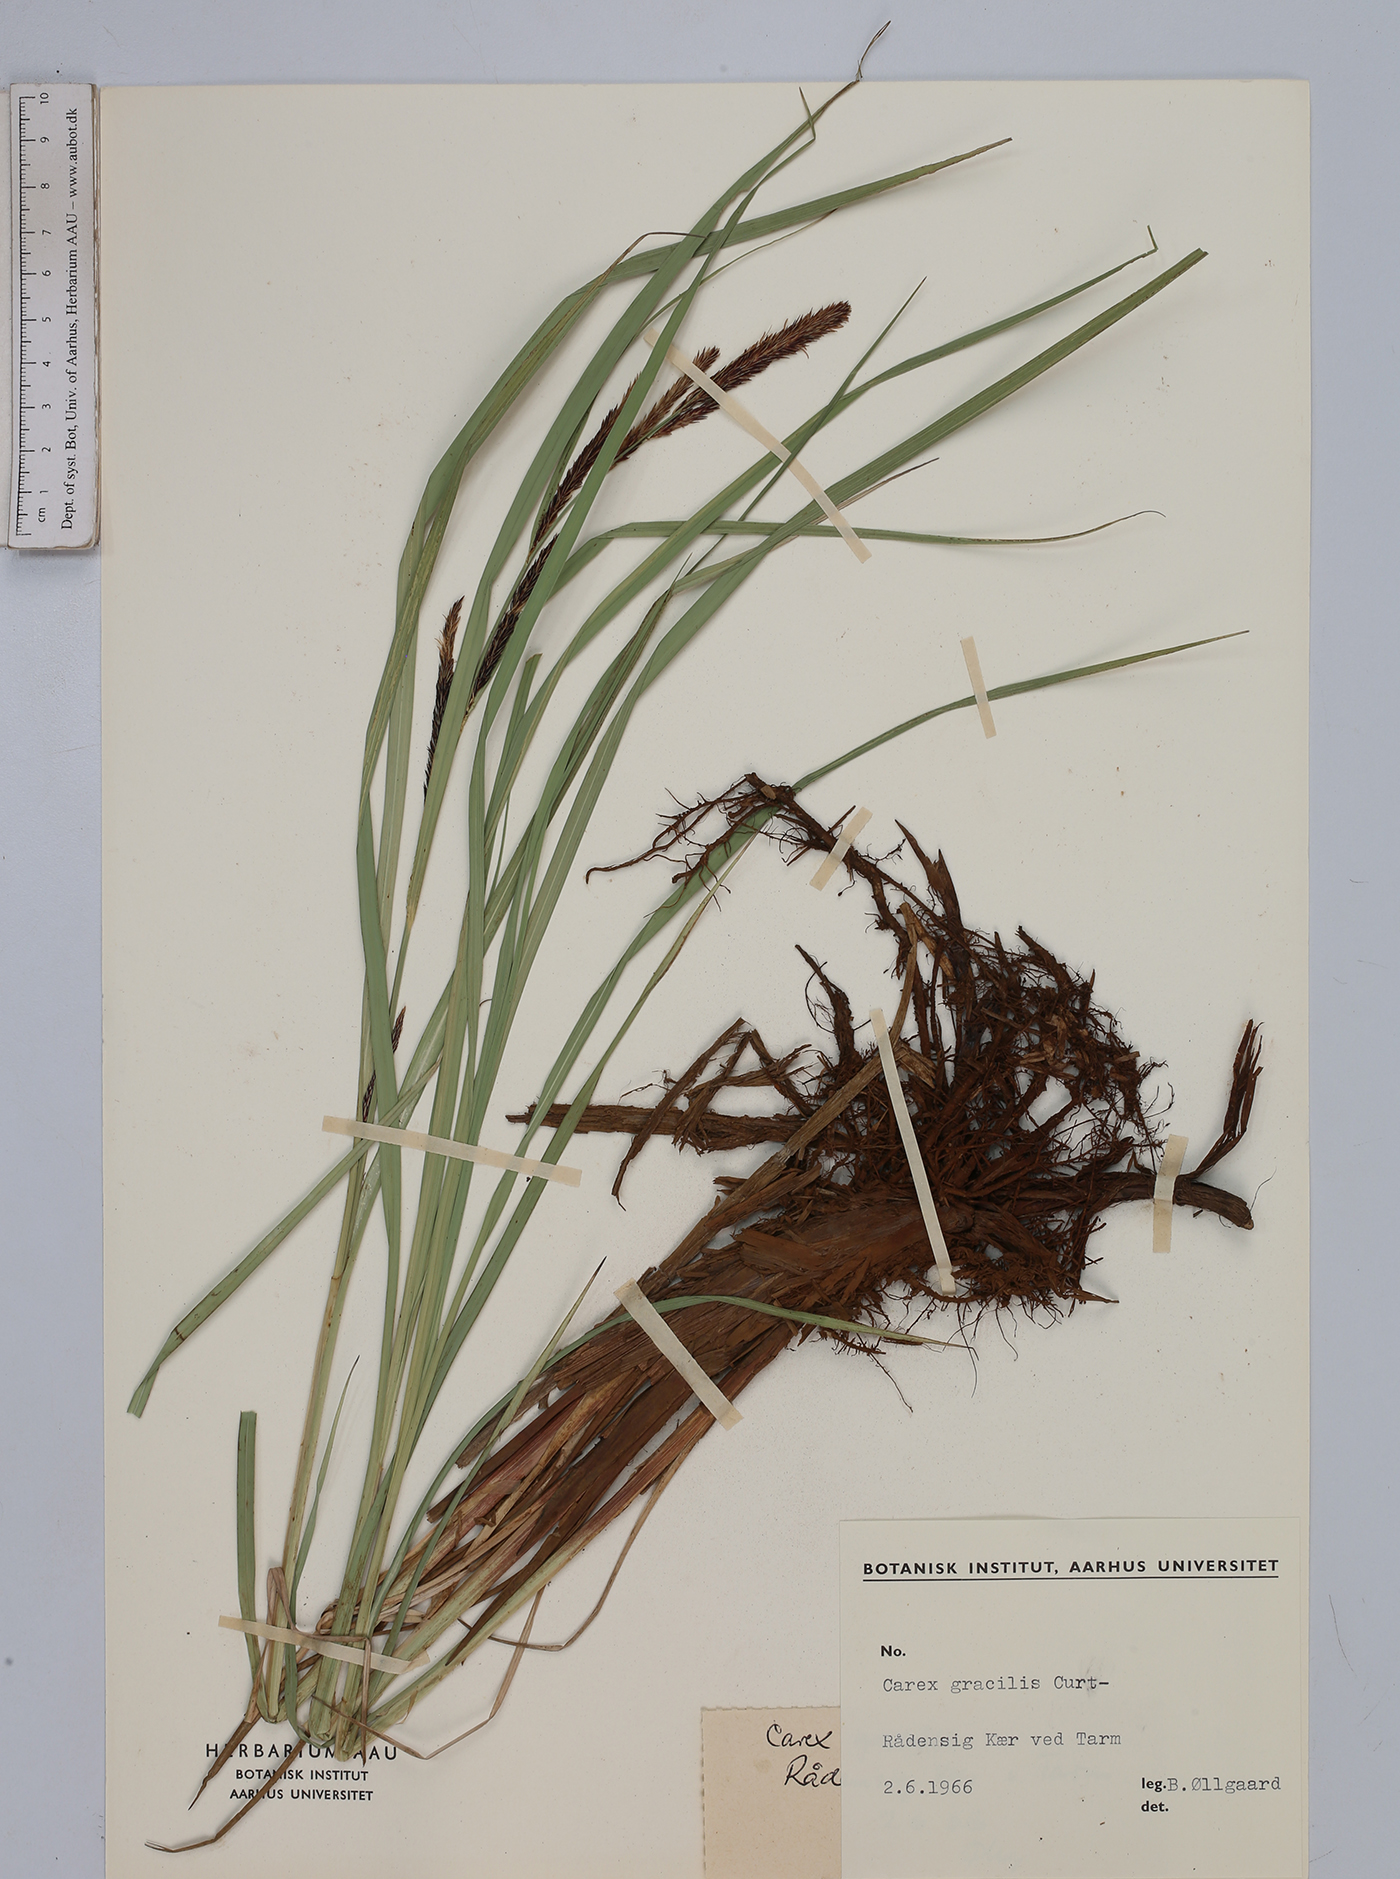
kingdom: Plantae
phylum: Tracheophyta
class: Liliopsida
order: Poales
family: Cyperaceae
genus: Carex
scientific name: Carex acuta
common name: Slender tufted-sedge
